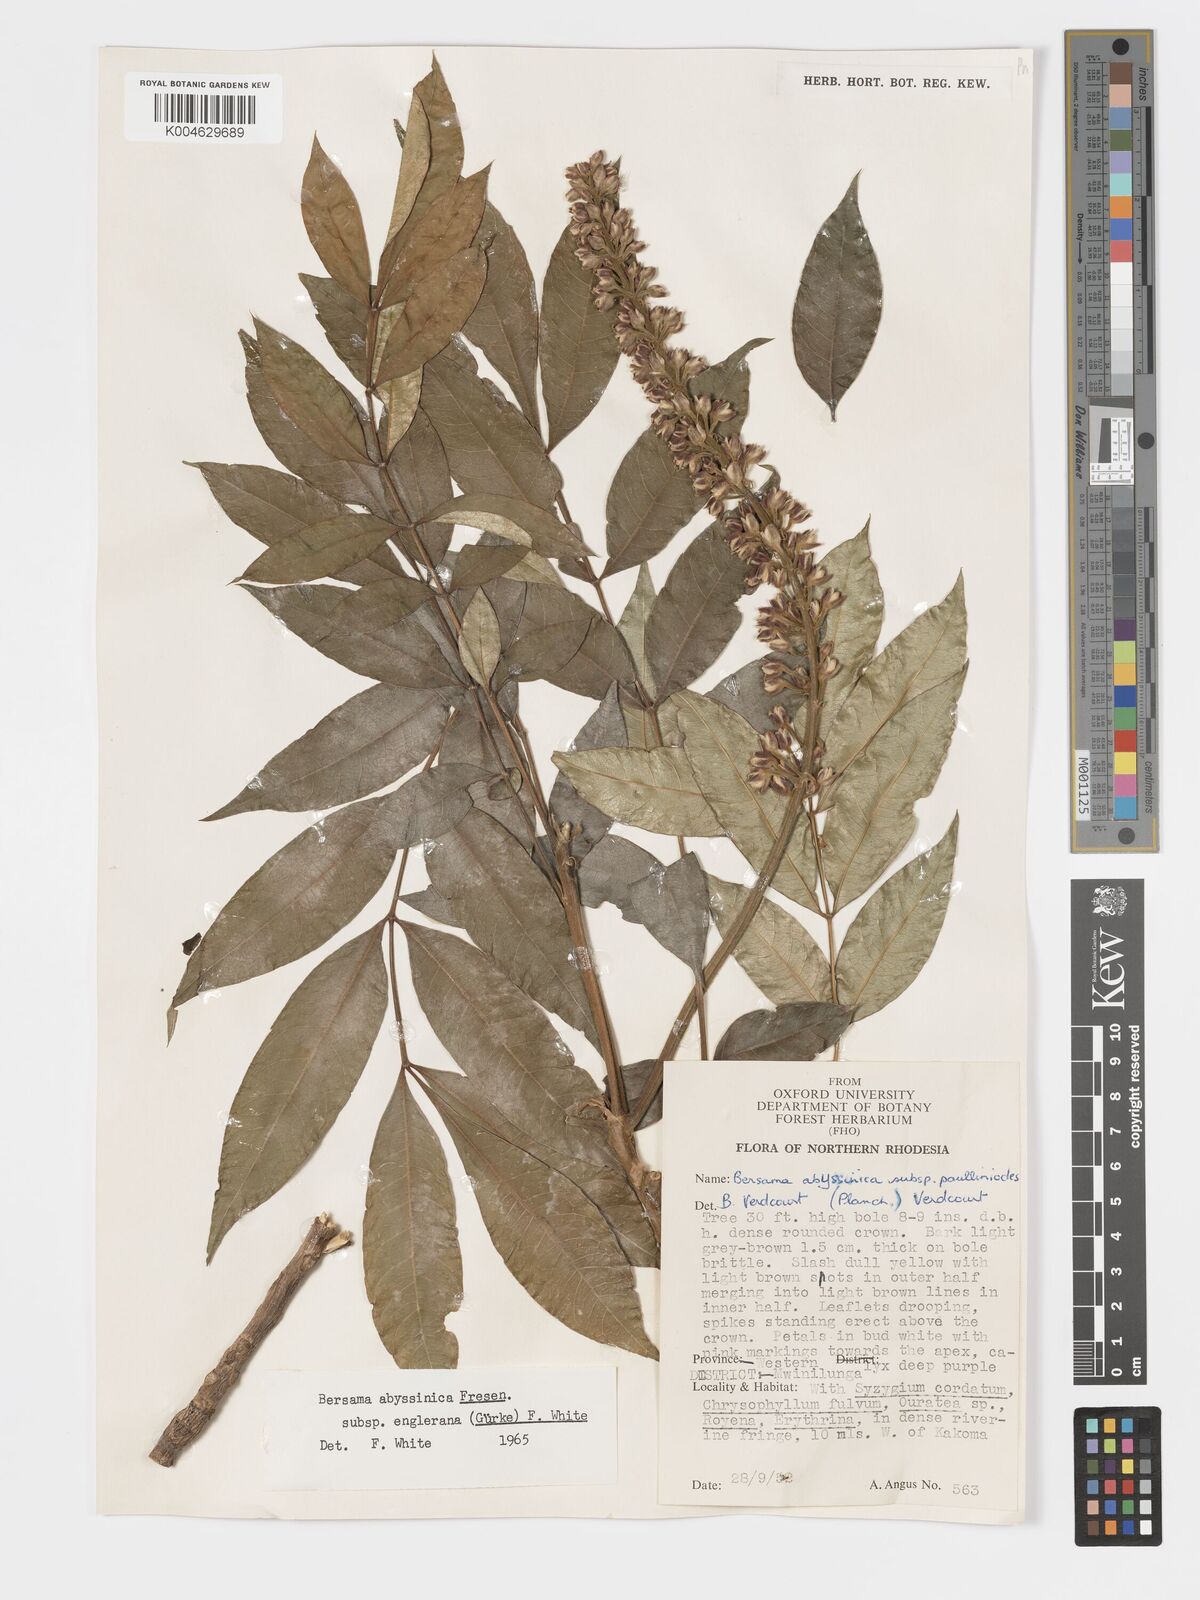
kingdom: Plantae
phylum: Tracheophyta
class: Magnoliopsida
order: Geraniales
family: Melianthaceae
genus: Bersama
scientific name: Bersama abyssinica
